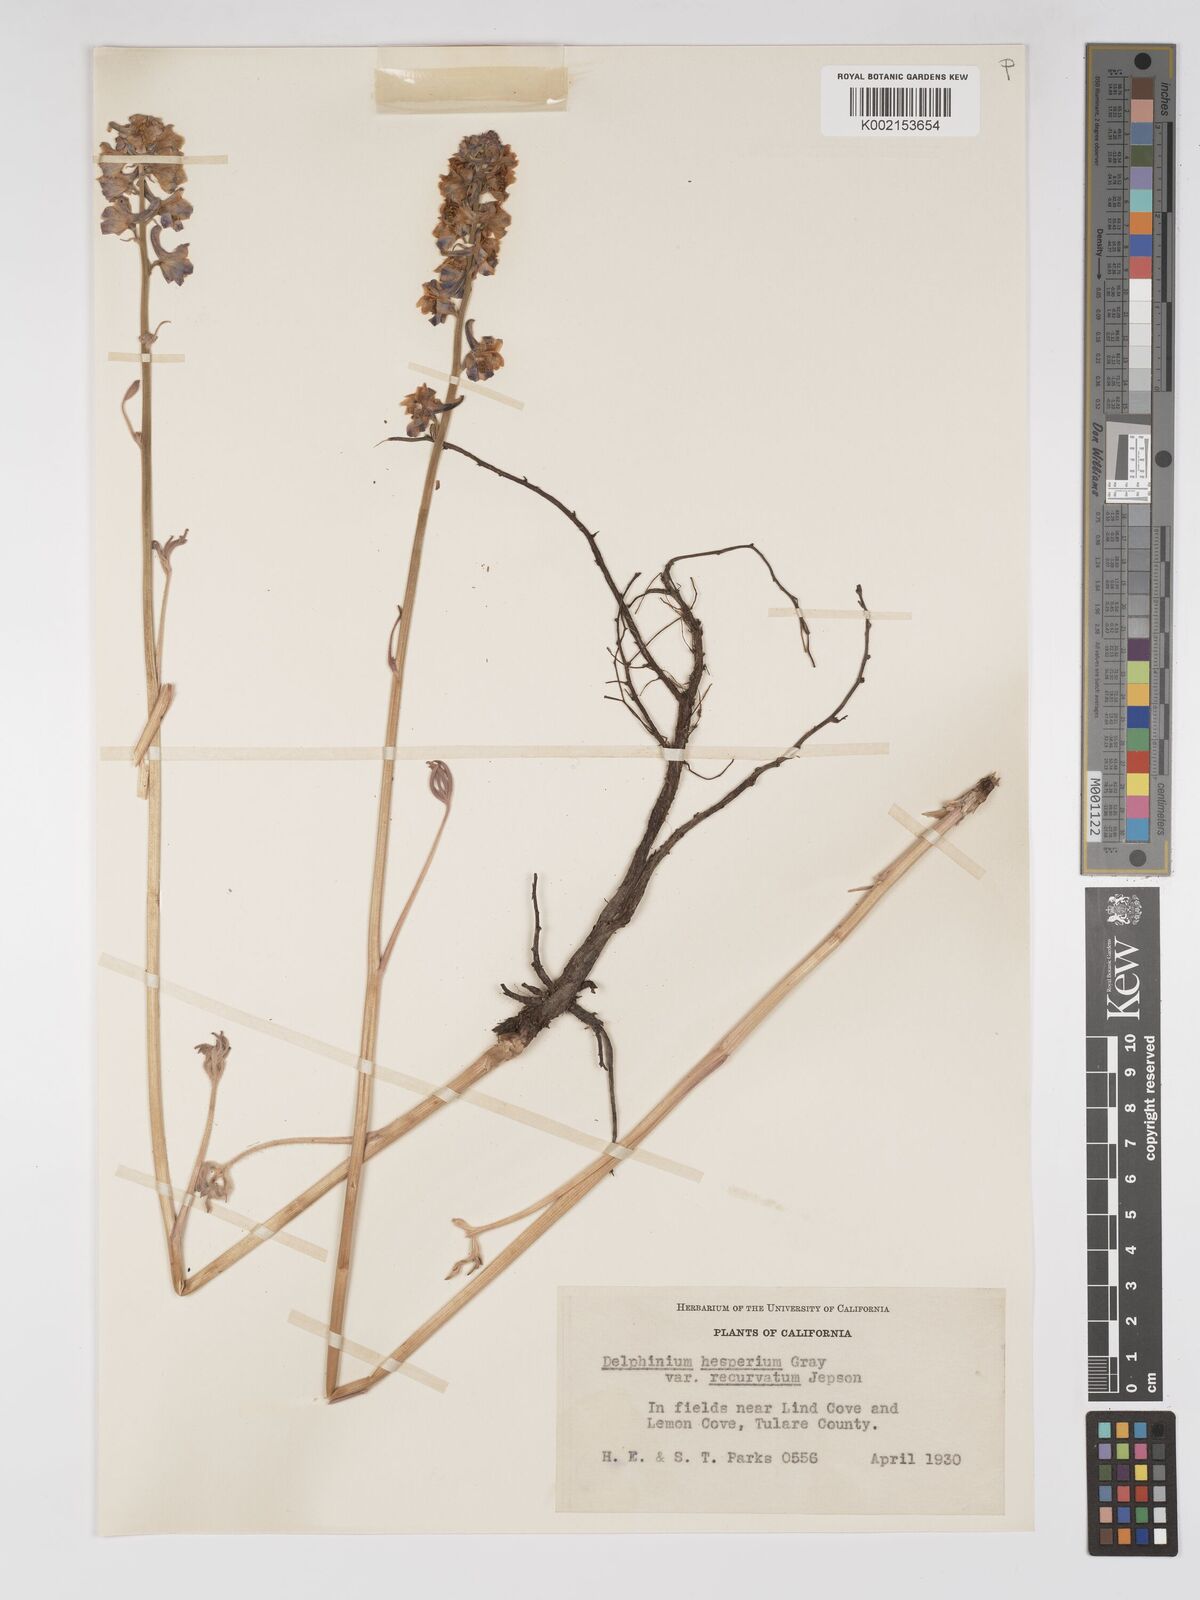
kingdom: Plantae
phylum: Tracheophyta
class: Magnoliopsida
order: Ranunculales
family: Ranunculaceae
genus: Delphinium
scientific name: Delphinium recurvatum
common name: Recurved larkspur
